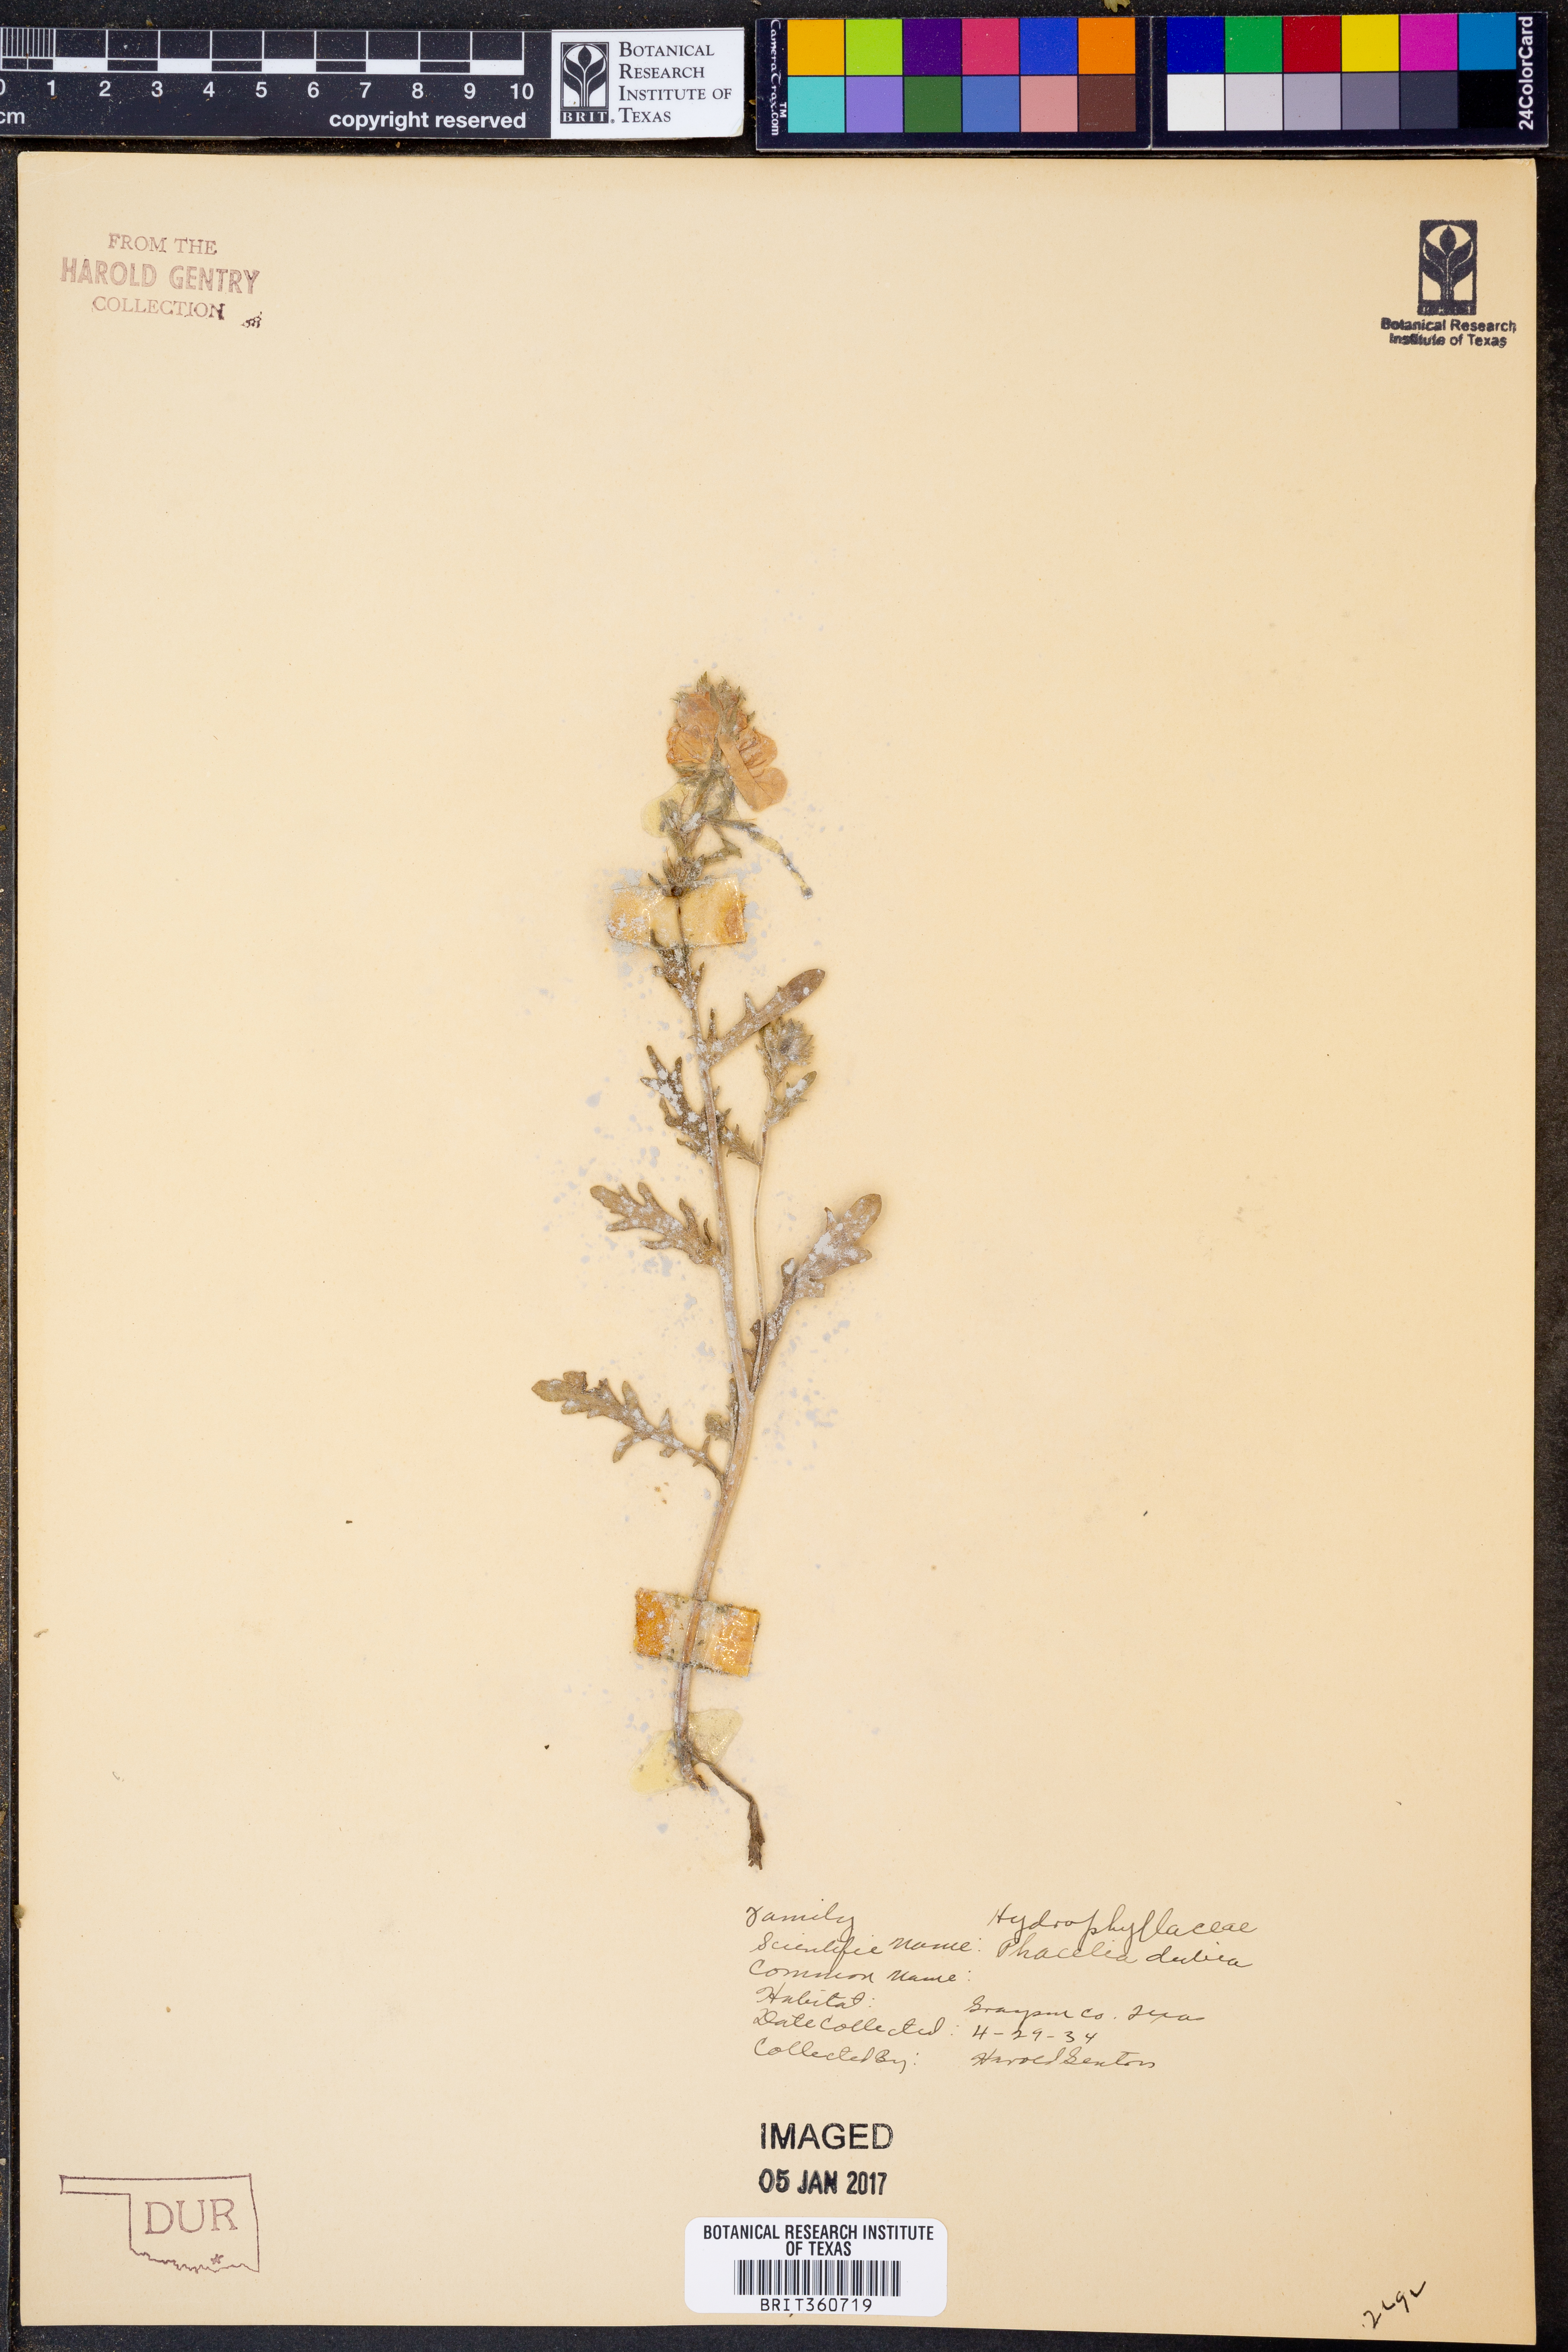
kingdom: Plantae
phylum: Tracheophyta
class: Magnoliopsida
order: Boraginales
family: Hydrophyllaceae
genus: Phacelia
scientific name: Phacelia dubia
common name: Appalachian phacelia
